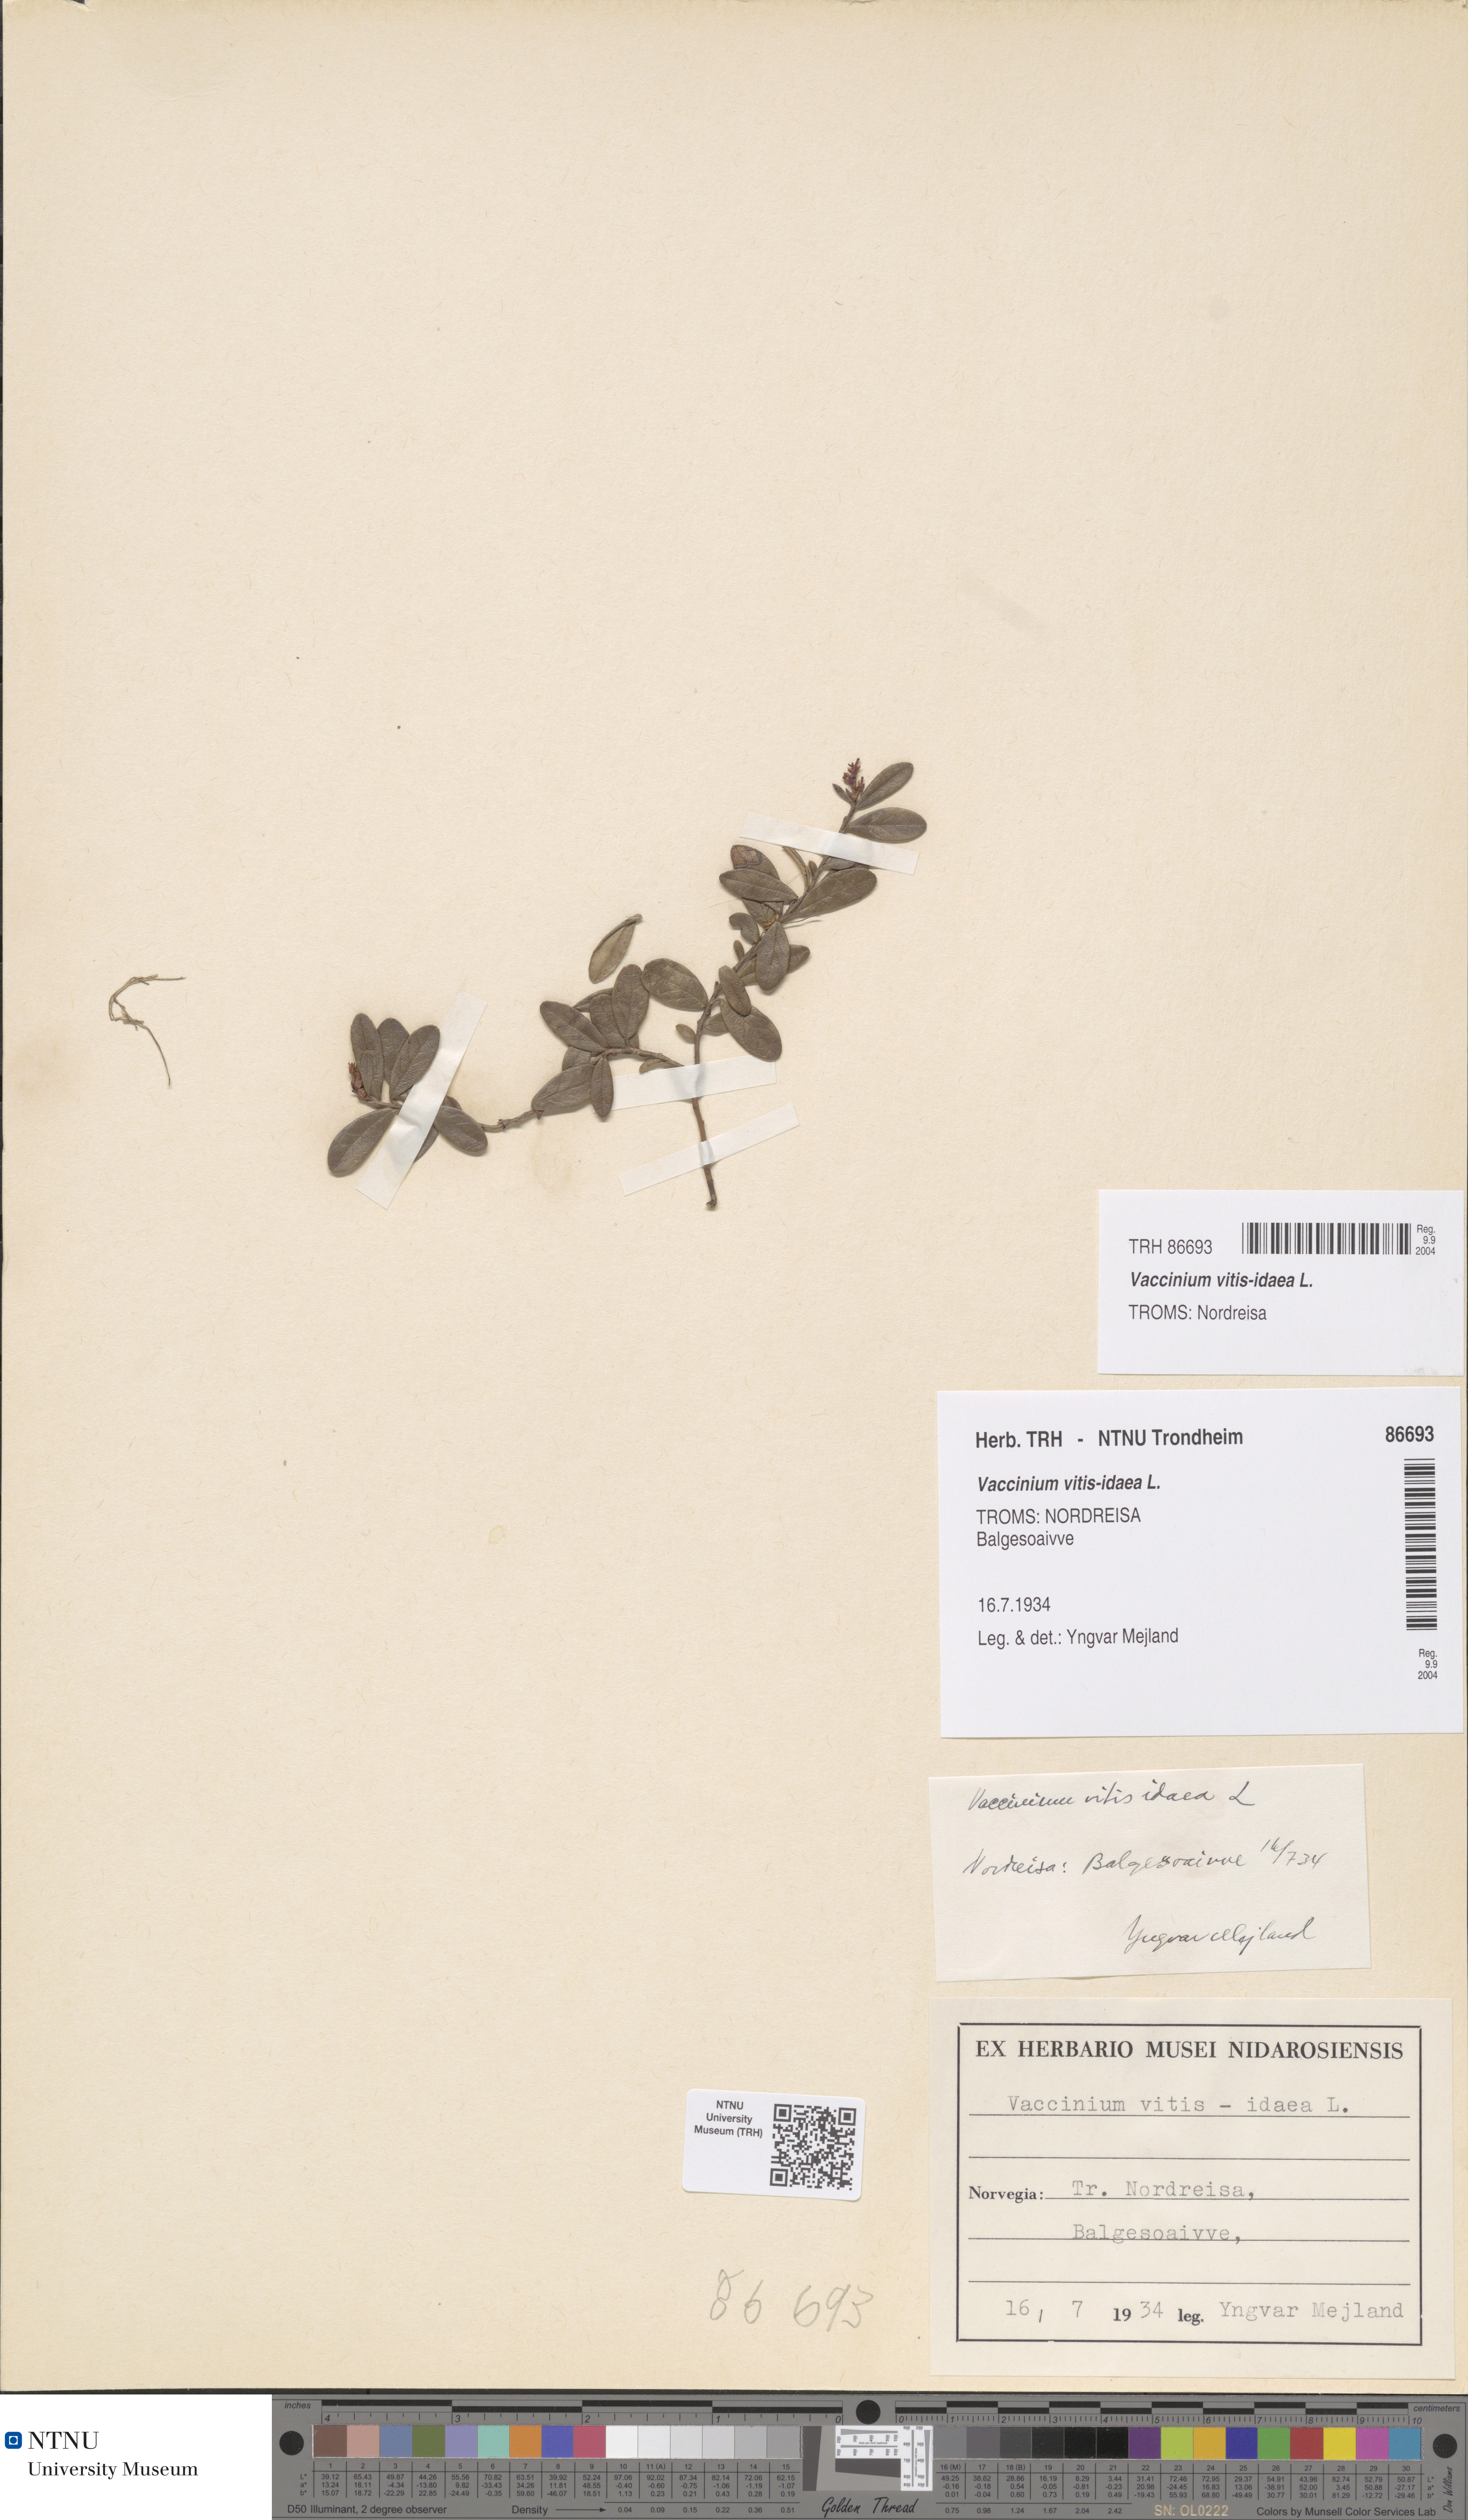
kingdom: Plantae
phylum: Tracheophyta
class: Magnoliopsida
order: Ericales
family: Ericaceae
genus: Vaccinium
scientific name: Vaccinium vitis-idaea
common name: Cowberry
